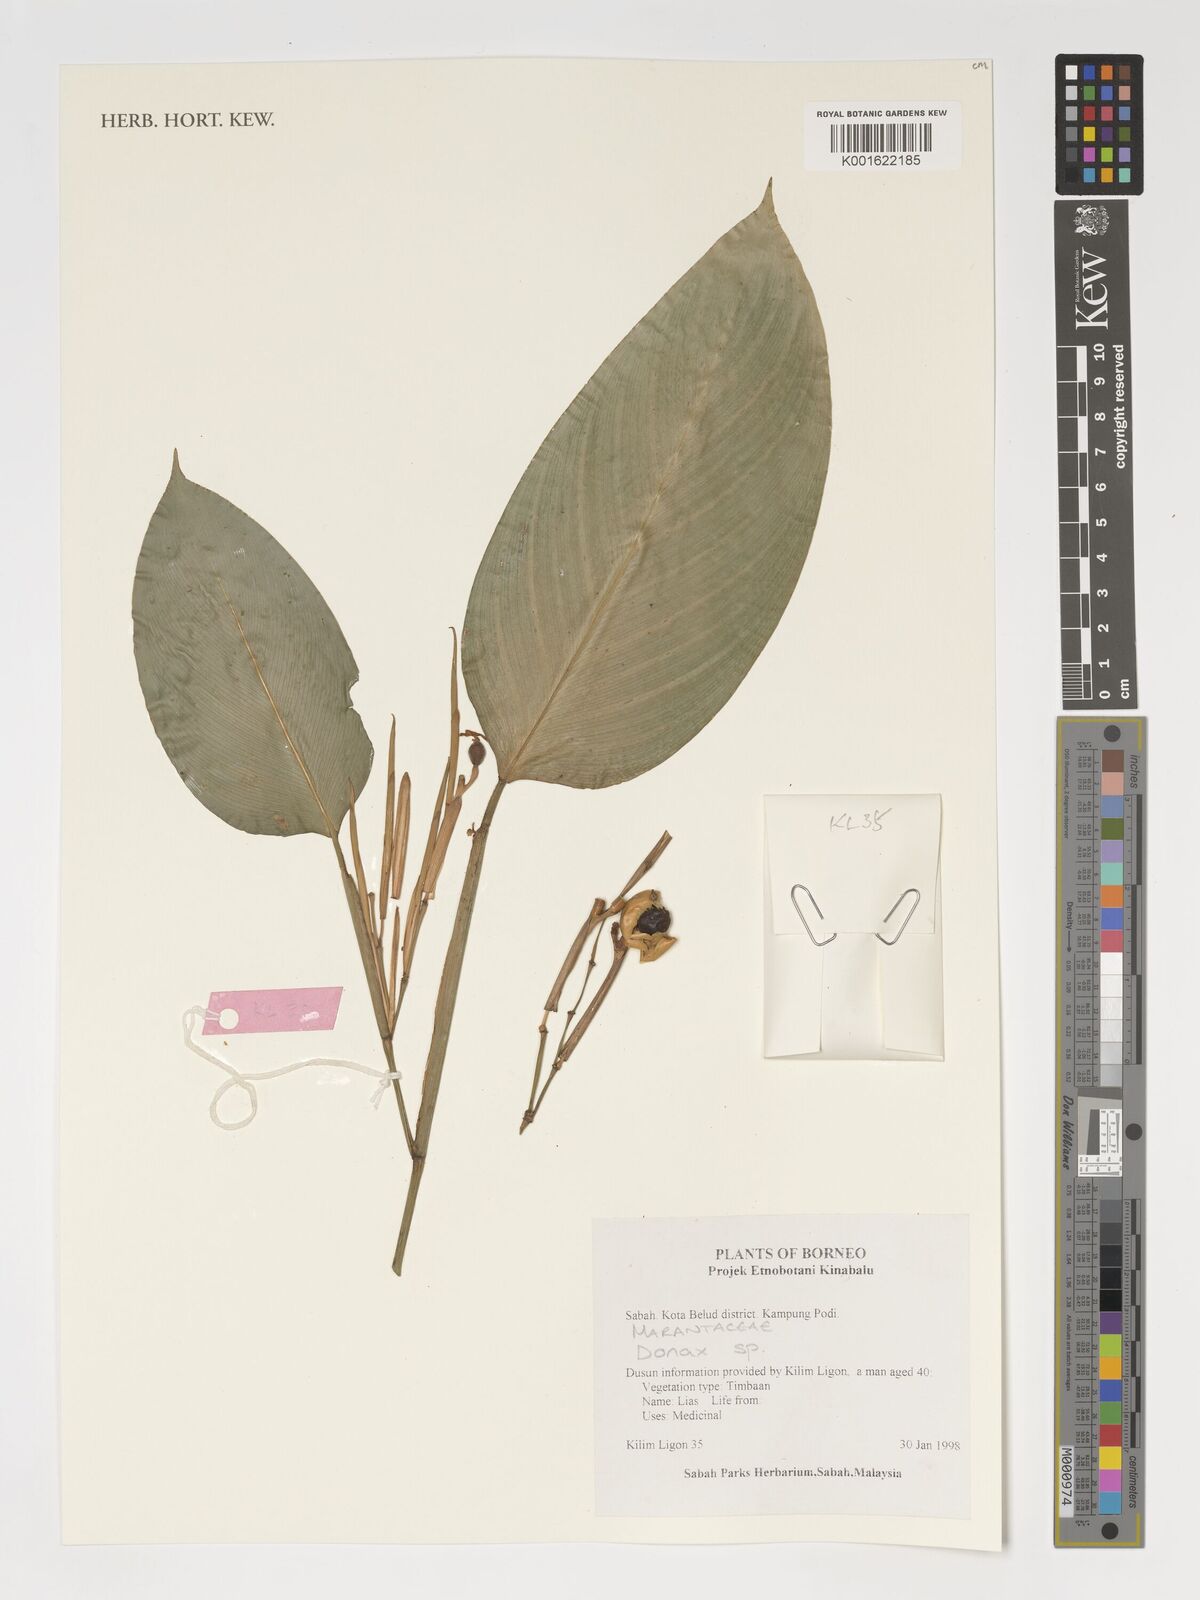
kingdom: Plantae
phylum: Tracheophyta
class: Liliopsida
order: Zingiberales
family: Marantaceae
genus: Donax
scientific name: Donax
